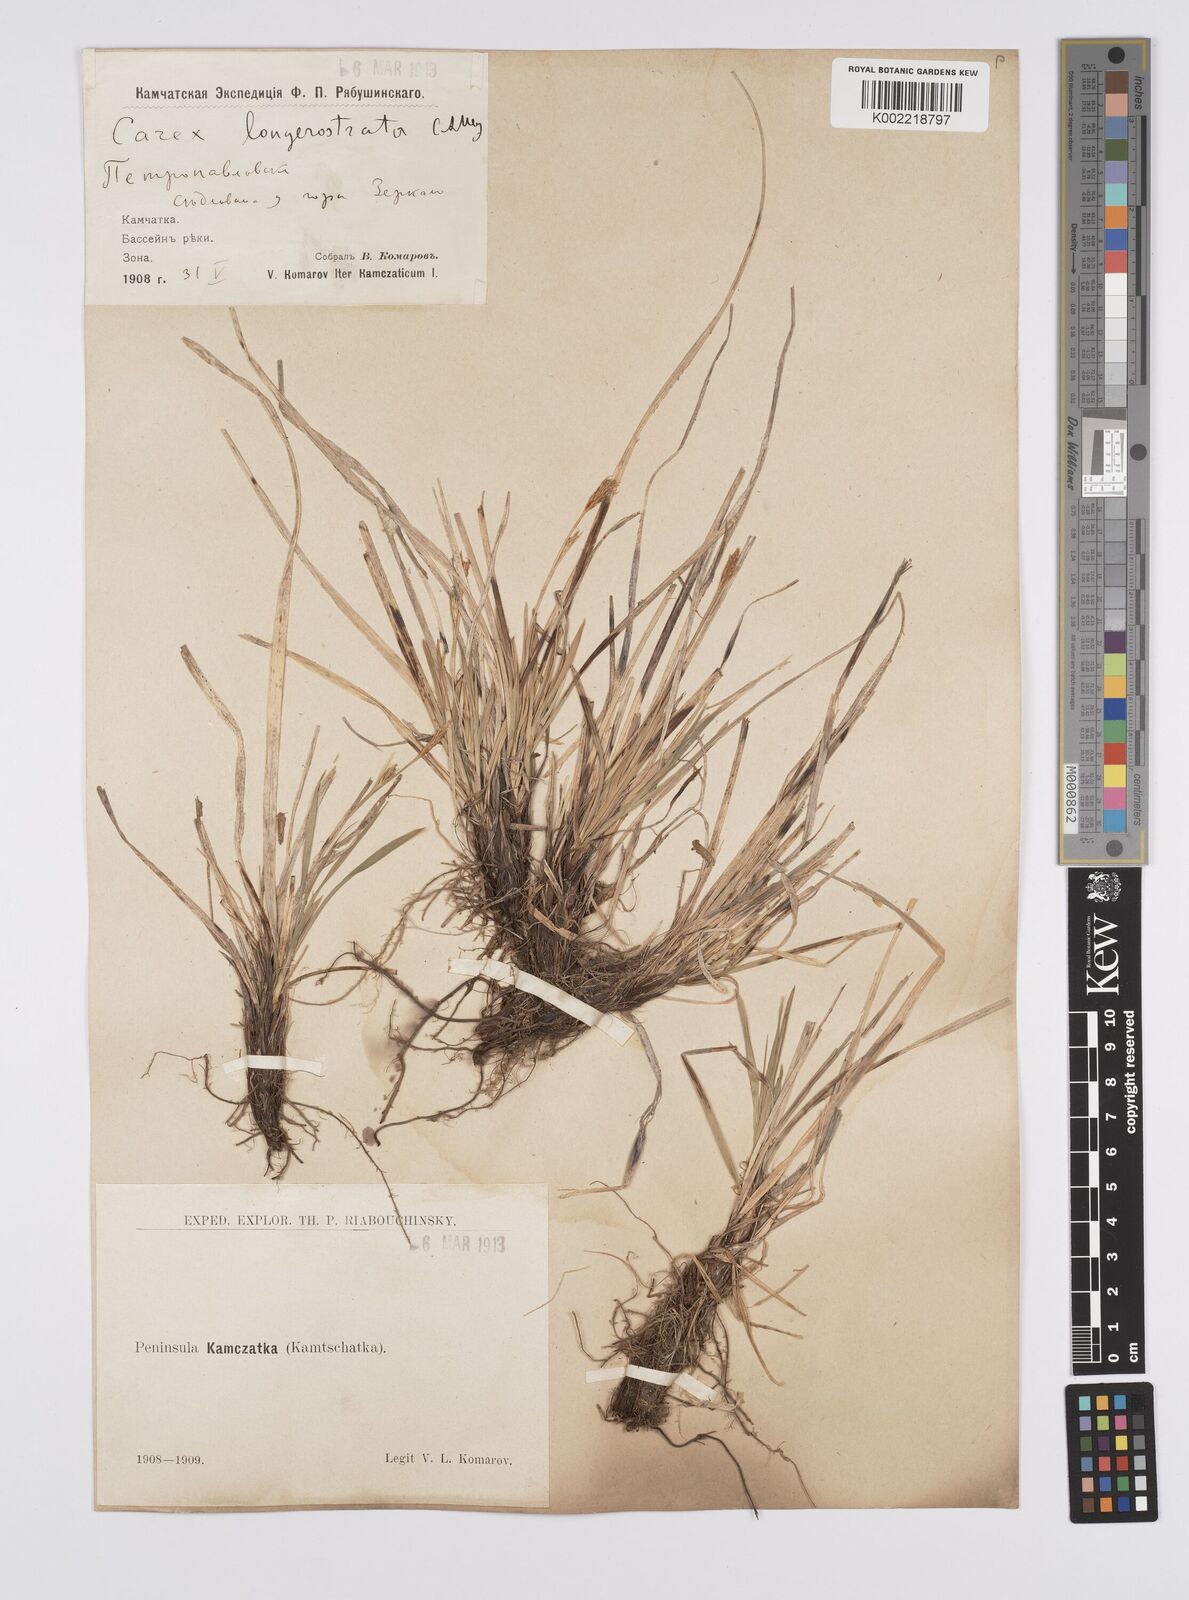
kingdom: Plantae
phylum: Tracheophyta
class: Liliopsida
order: Poales
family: Cyperaceae
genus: Carex
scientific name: Carex longerostrata
